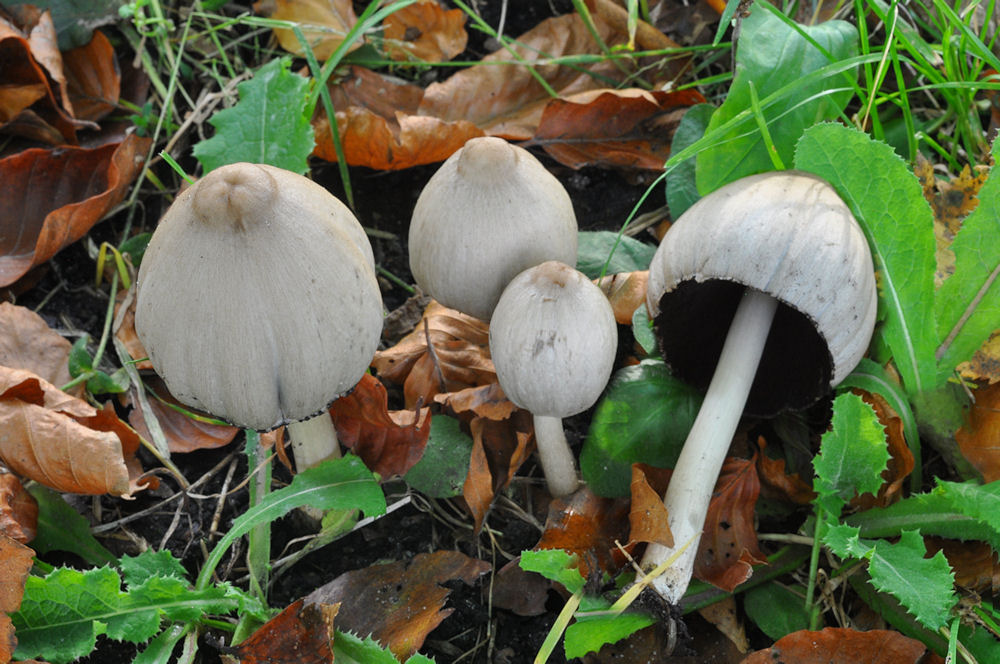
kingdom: Fungi
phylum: Basidiomycota
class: Agaricomycetes
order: Agaricales
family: Psathyrellaceae
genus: Coprinopsis
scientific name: Coprinopsis atramentaria
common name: almindelig blækhat
